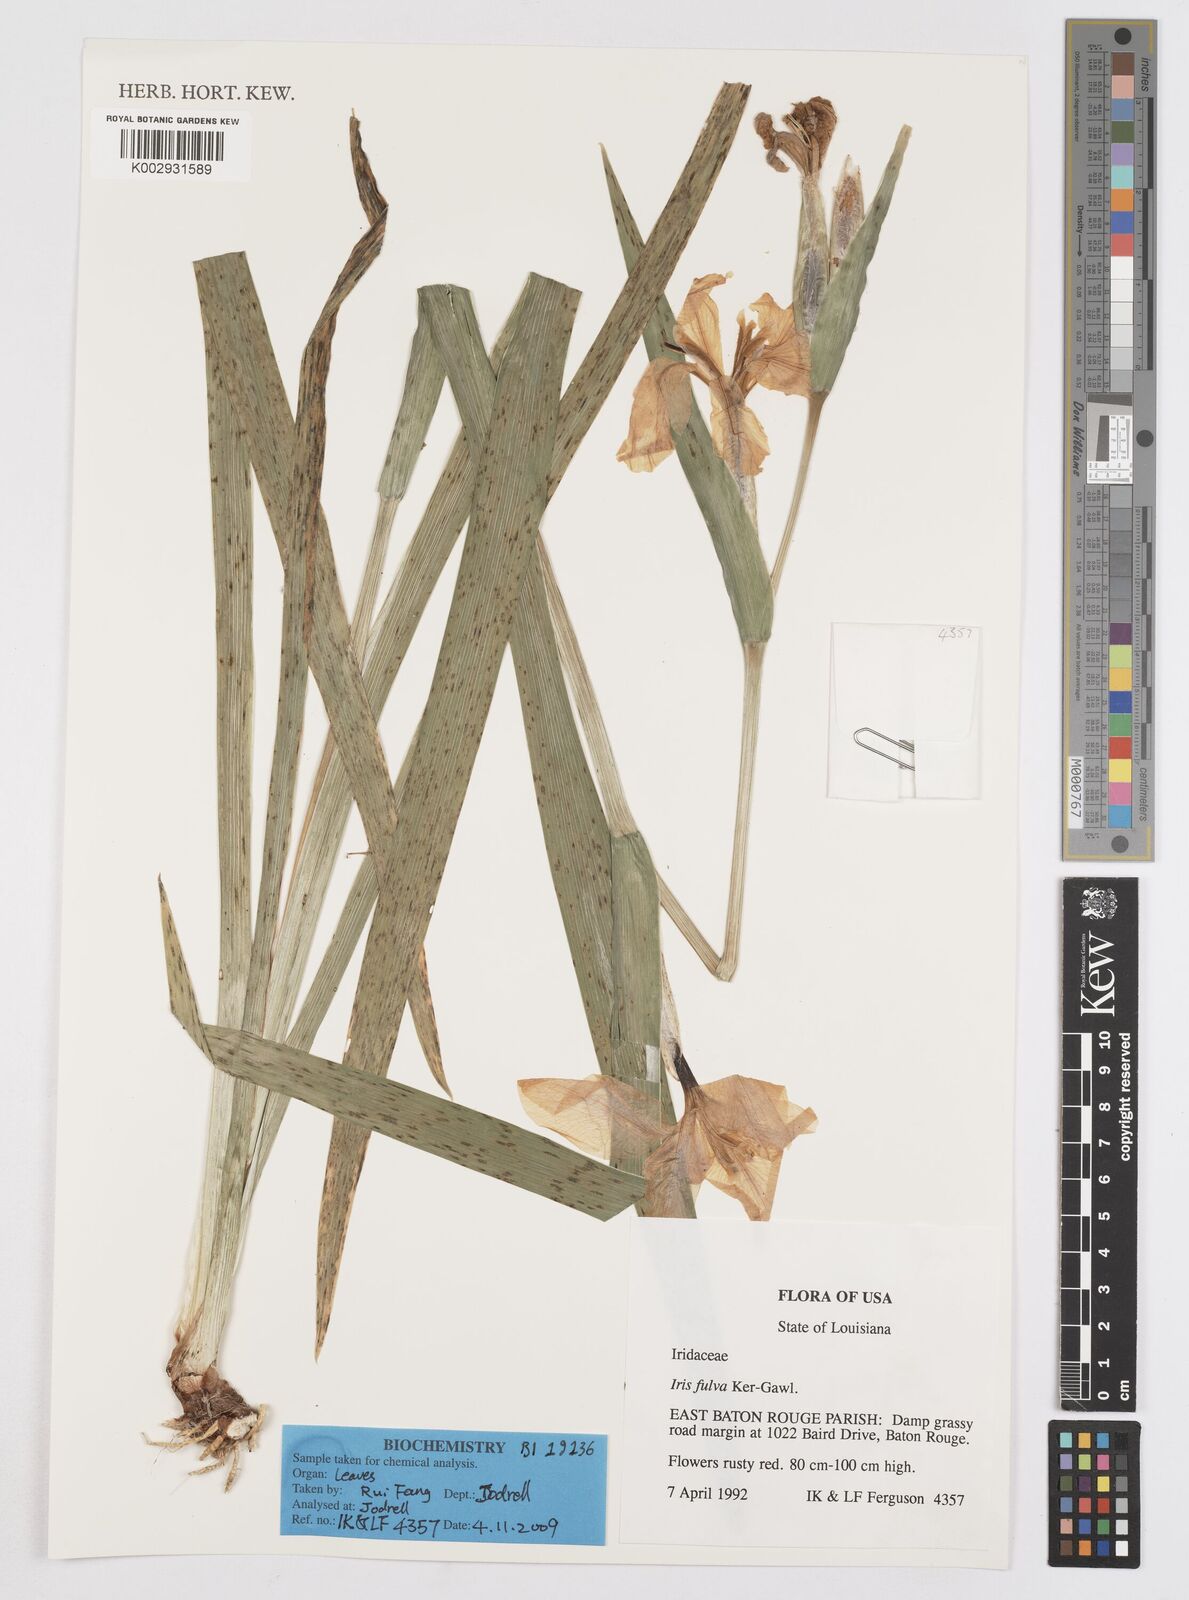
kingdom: Plantae
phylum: Tracheophyta
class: Liliopsida
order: Asparagales
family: Iridaceae
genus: Iris
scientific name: Iris fulva
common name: Copper iris
